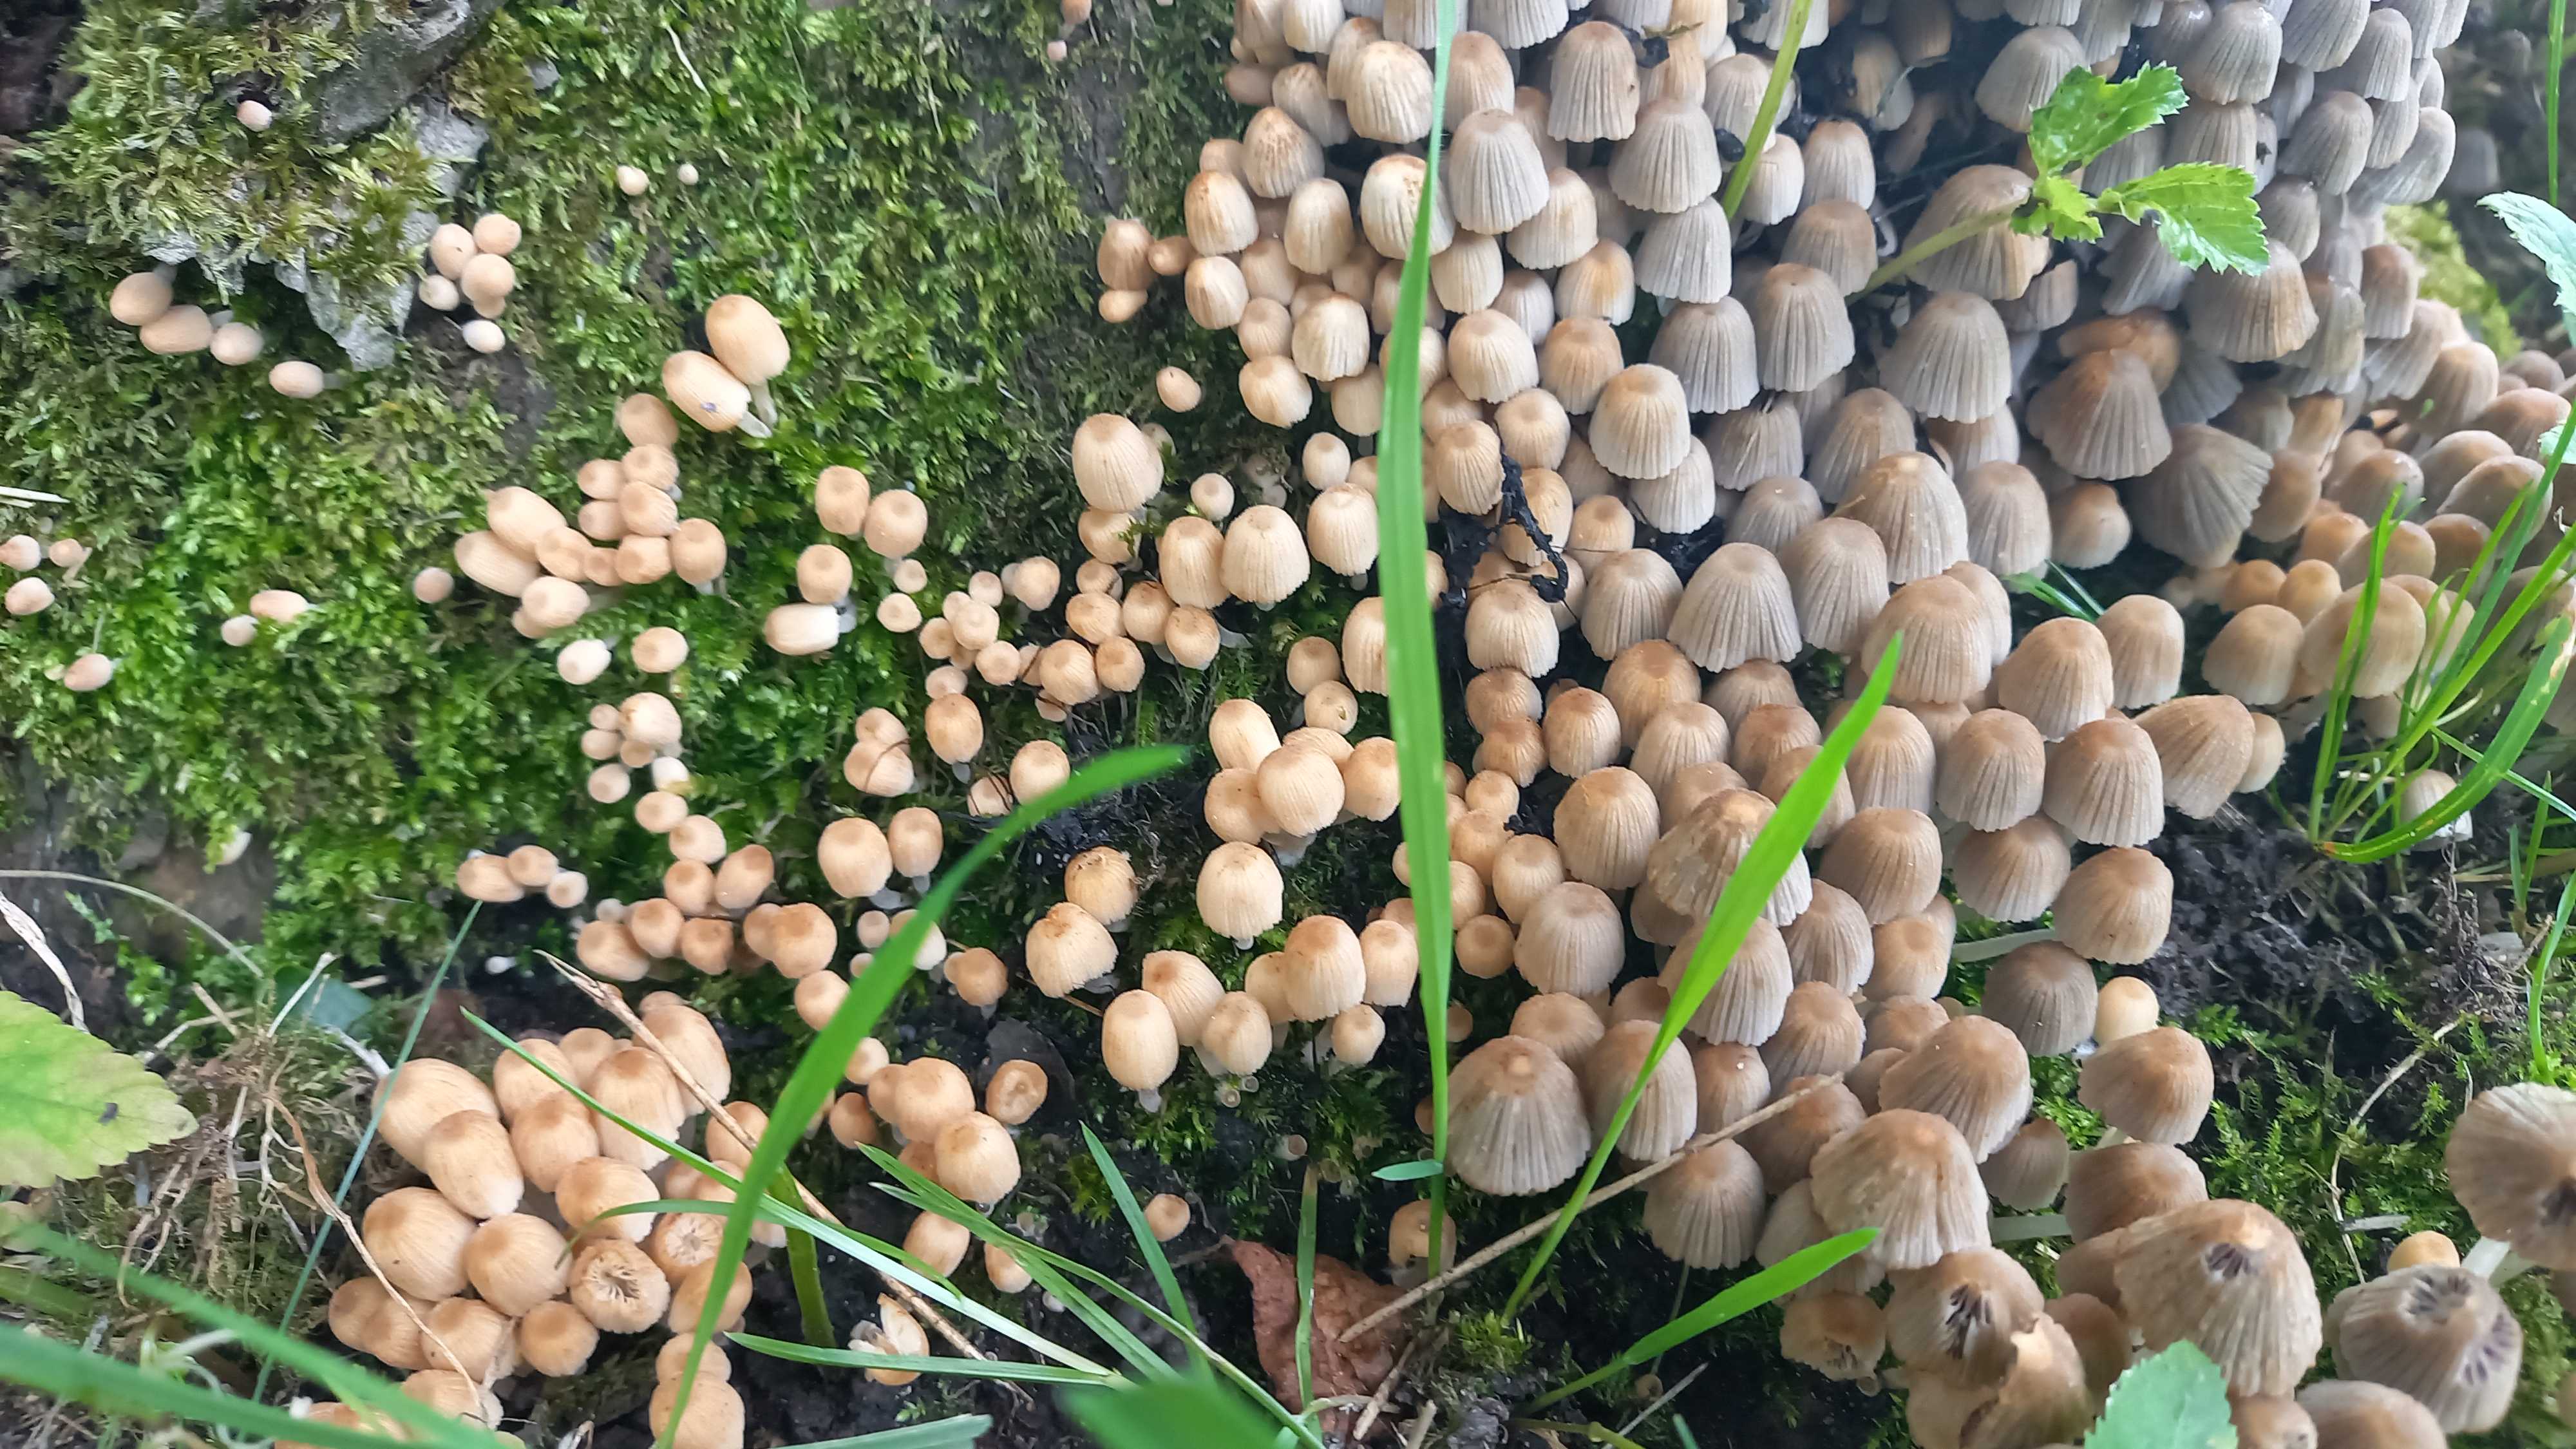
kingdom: Fungi
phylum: Basidiomycota
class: Agaricomycetes
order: Agaricales
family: Psathyrellaceae
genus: Coprinellus
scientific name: Coprinellus disseminatus
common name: bredsået blækhat
